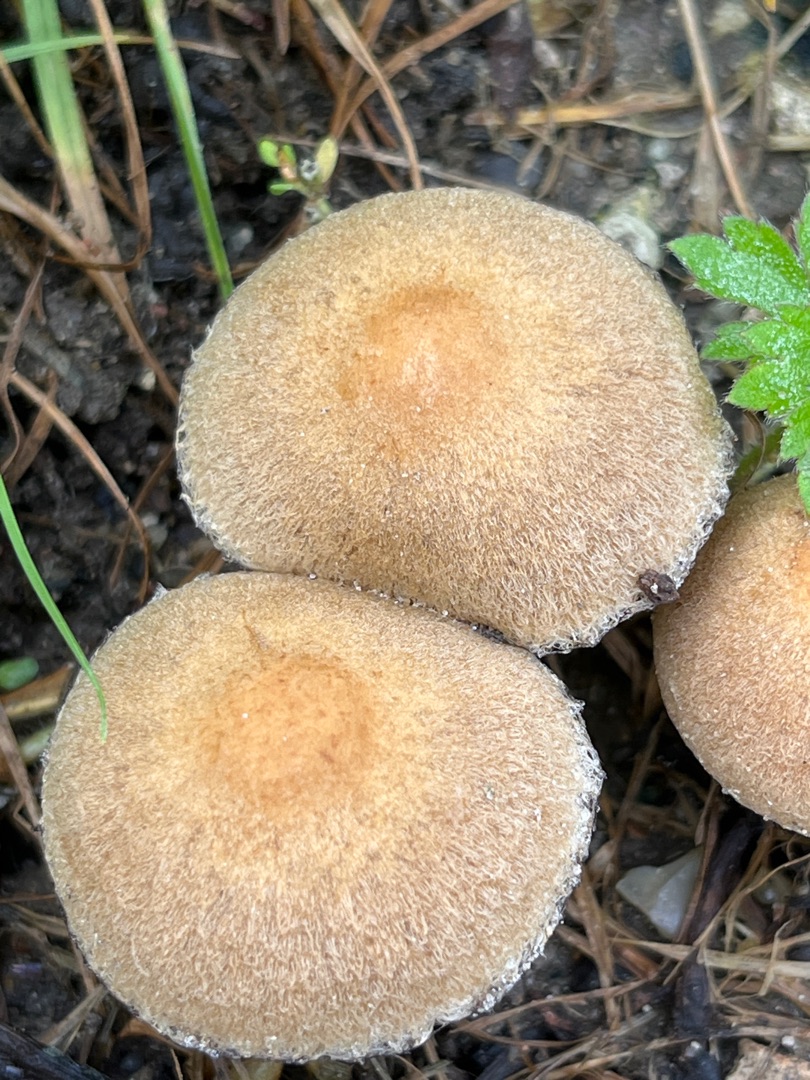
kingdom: Fungi
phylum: Basidiomycota
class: Agaricomycetes
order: Agaricales
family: Psathyrellaceae
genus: Lacrymaria
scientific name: Lacrymaria lacrymabunda
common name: Grædende mørkhat
